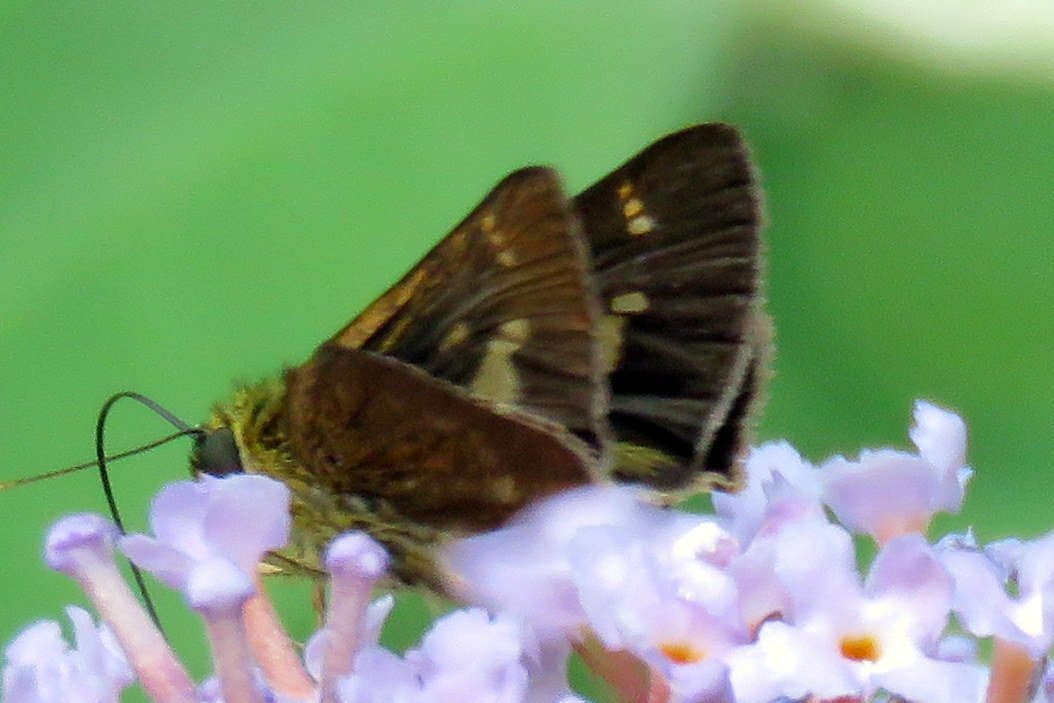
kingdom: Animalia
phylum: Arthropoda
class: Insecta
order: Lepidoptera
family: Hesperiidae
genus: Vernia
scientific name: Vernia verna
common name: Little Glassywing
